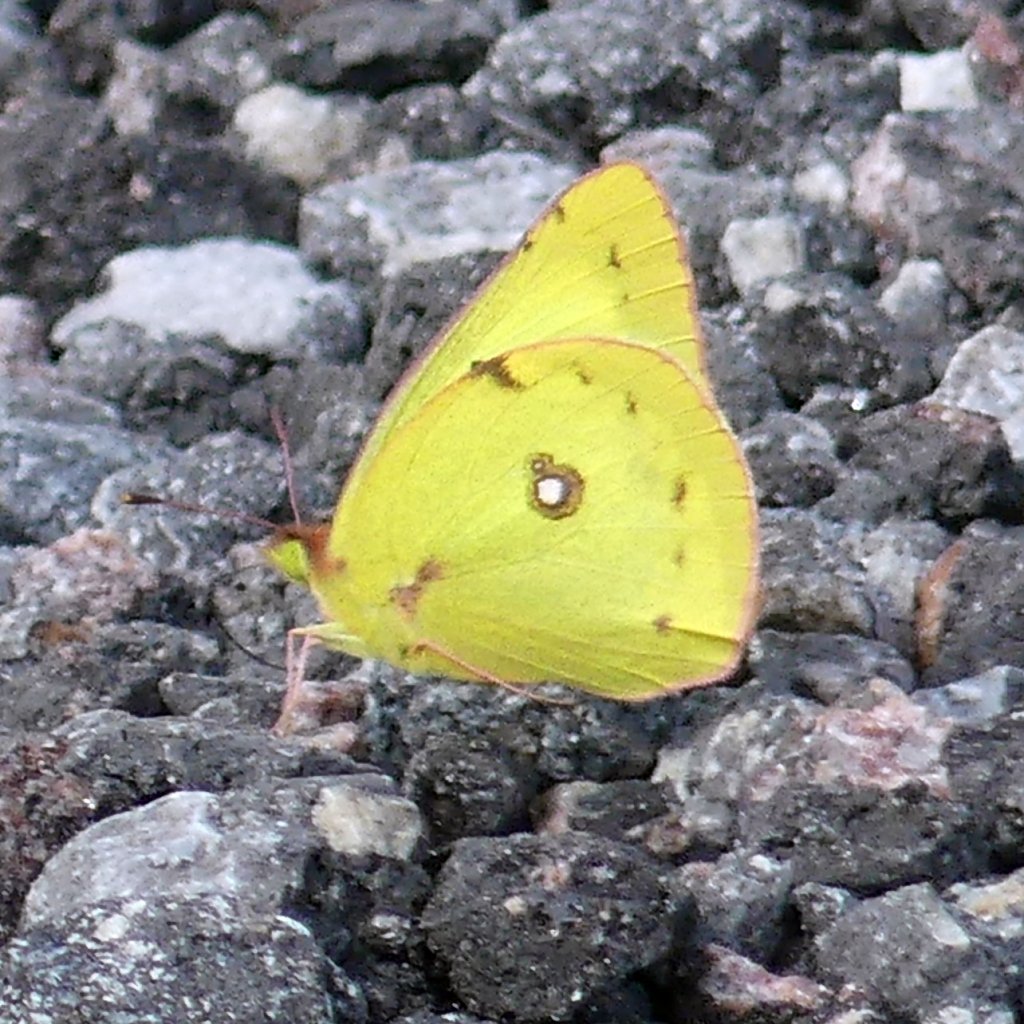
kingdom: Animalia
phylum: Arthropoda
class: Insecta
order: Lepidoptera
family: Pieridae
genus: Colias
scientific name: Colias philodice
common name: Clouded Sulphur
